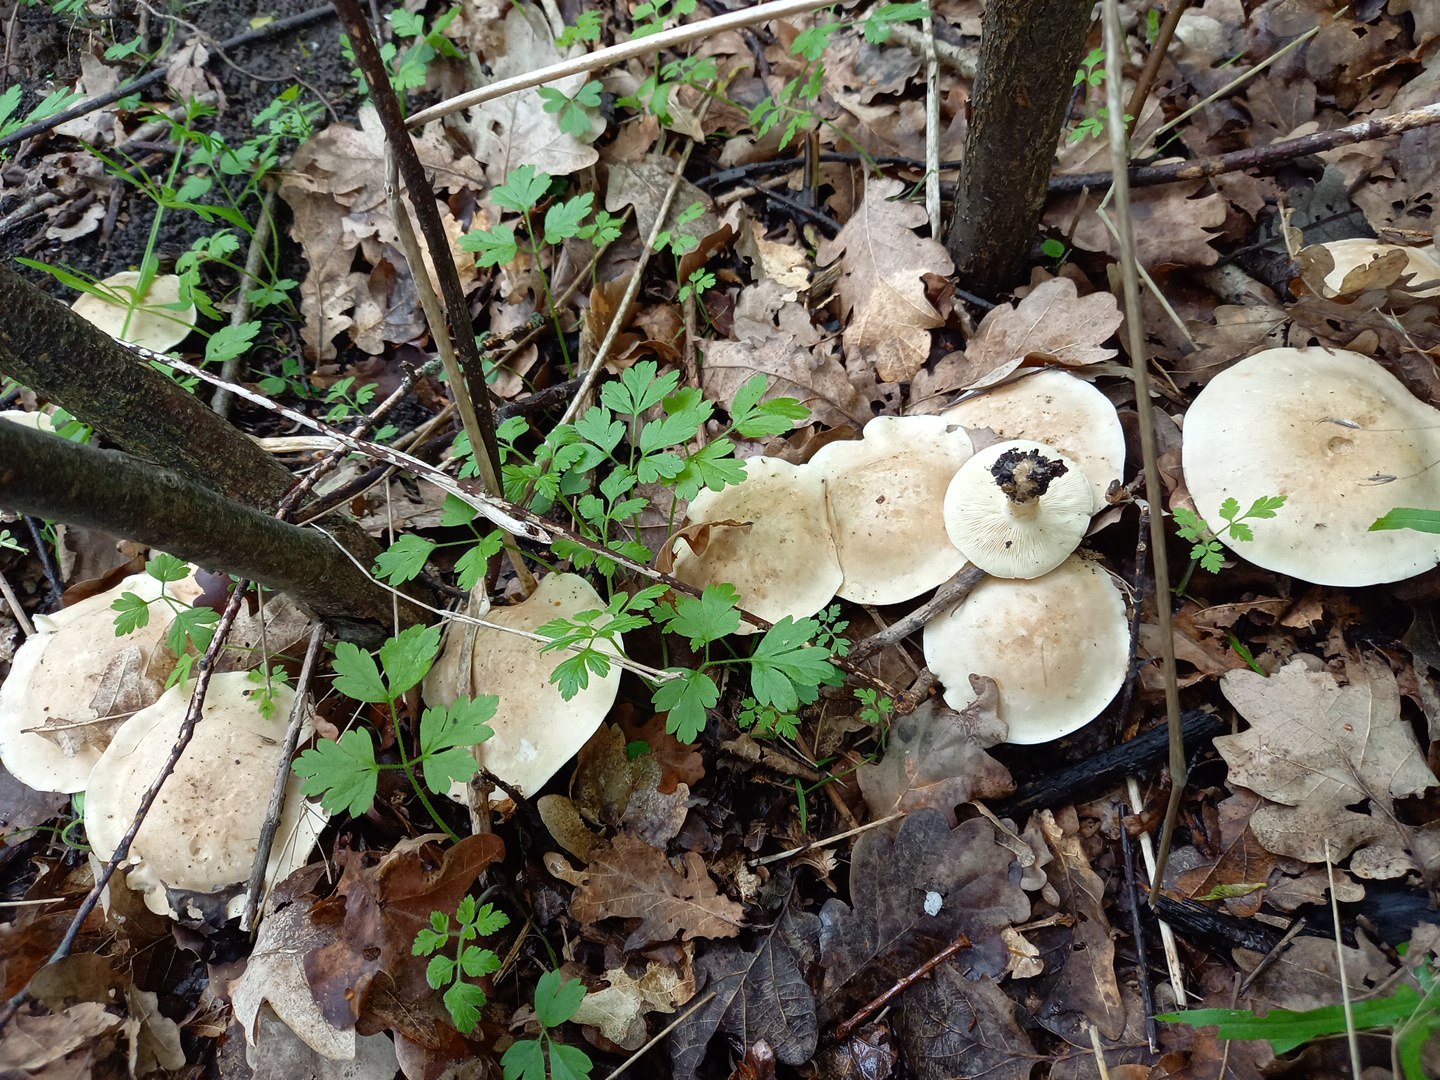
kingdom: Fungi
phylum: Basidiomycota
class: Agaricomycetes
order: Agaricales
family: Lyophyllaceae
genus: Calocybe
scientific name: Calocybe gambosa
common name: vårmusseron
